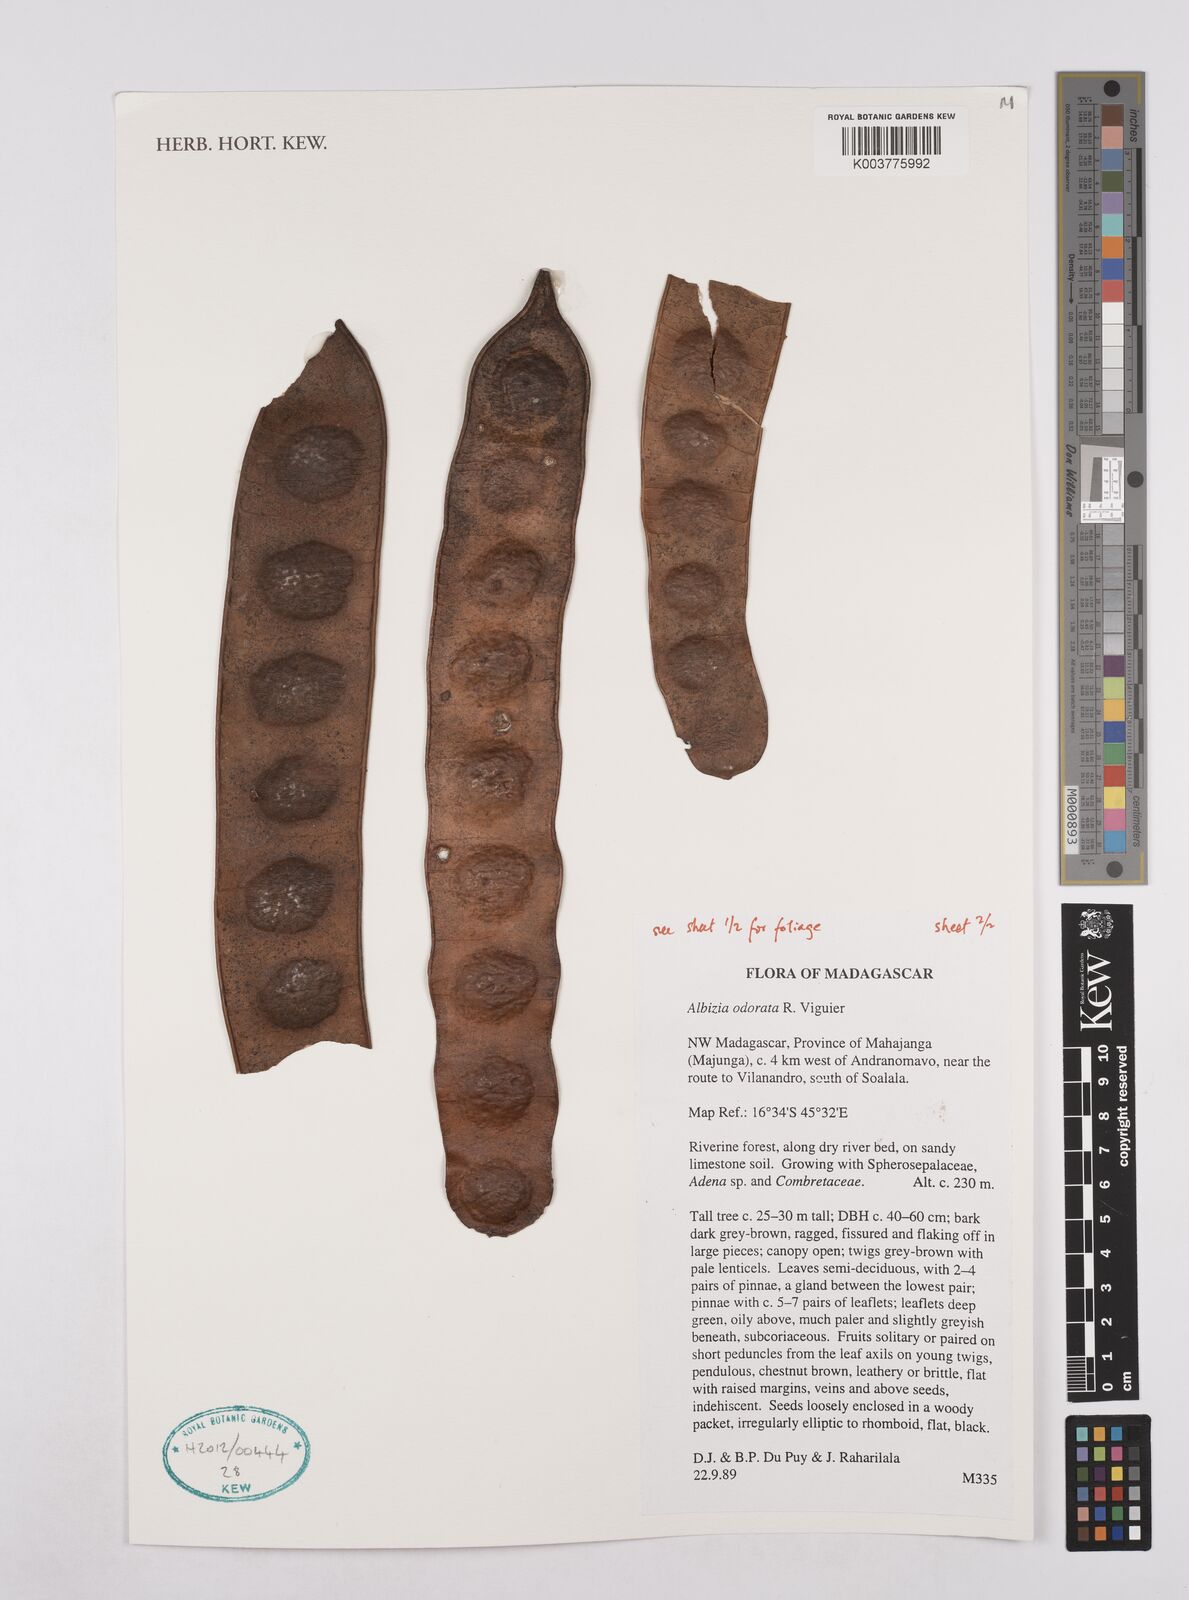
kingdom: Plantae
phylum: Tracheophyta
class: Magnoliopsida
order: Fabales
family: Fabaceae
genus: Albizia
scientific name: Albizia odorata
